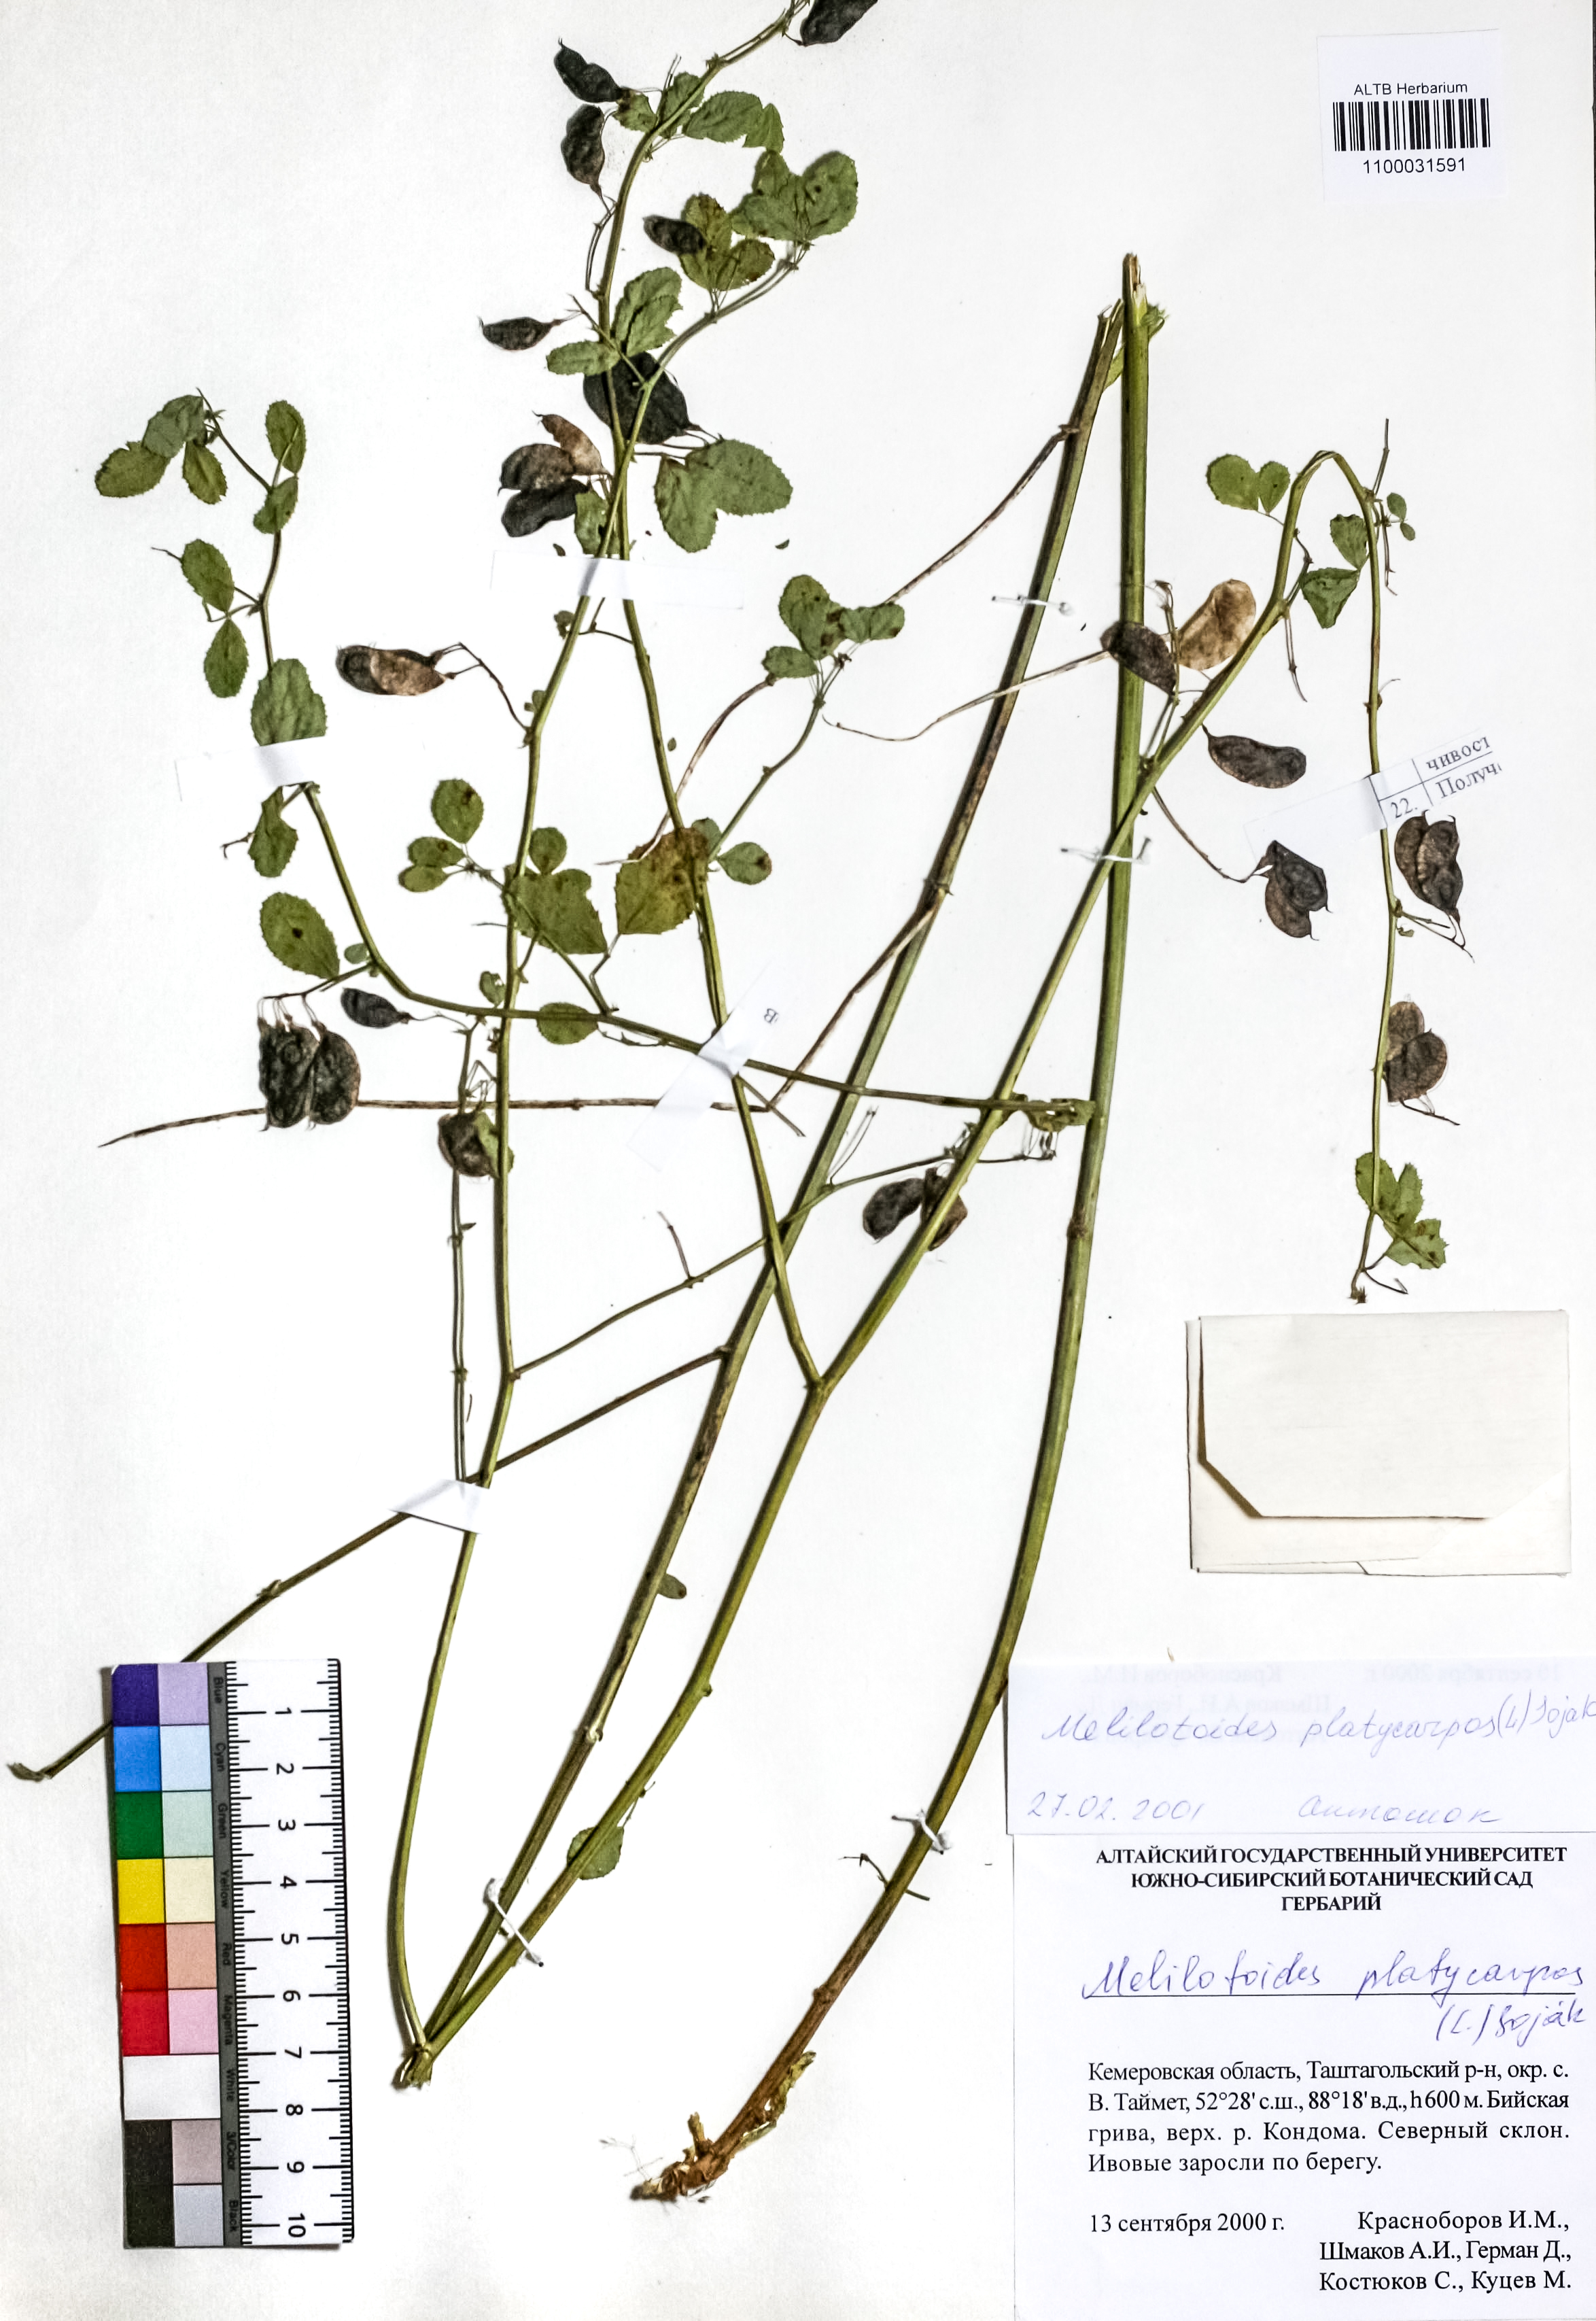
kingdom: Plantae
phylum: Tracheophyta
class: Magnoliopsida
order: Fabales
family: Fabaceae
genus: Medicago
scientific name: Medicago platycarpos
